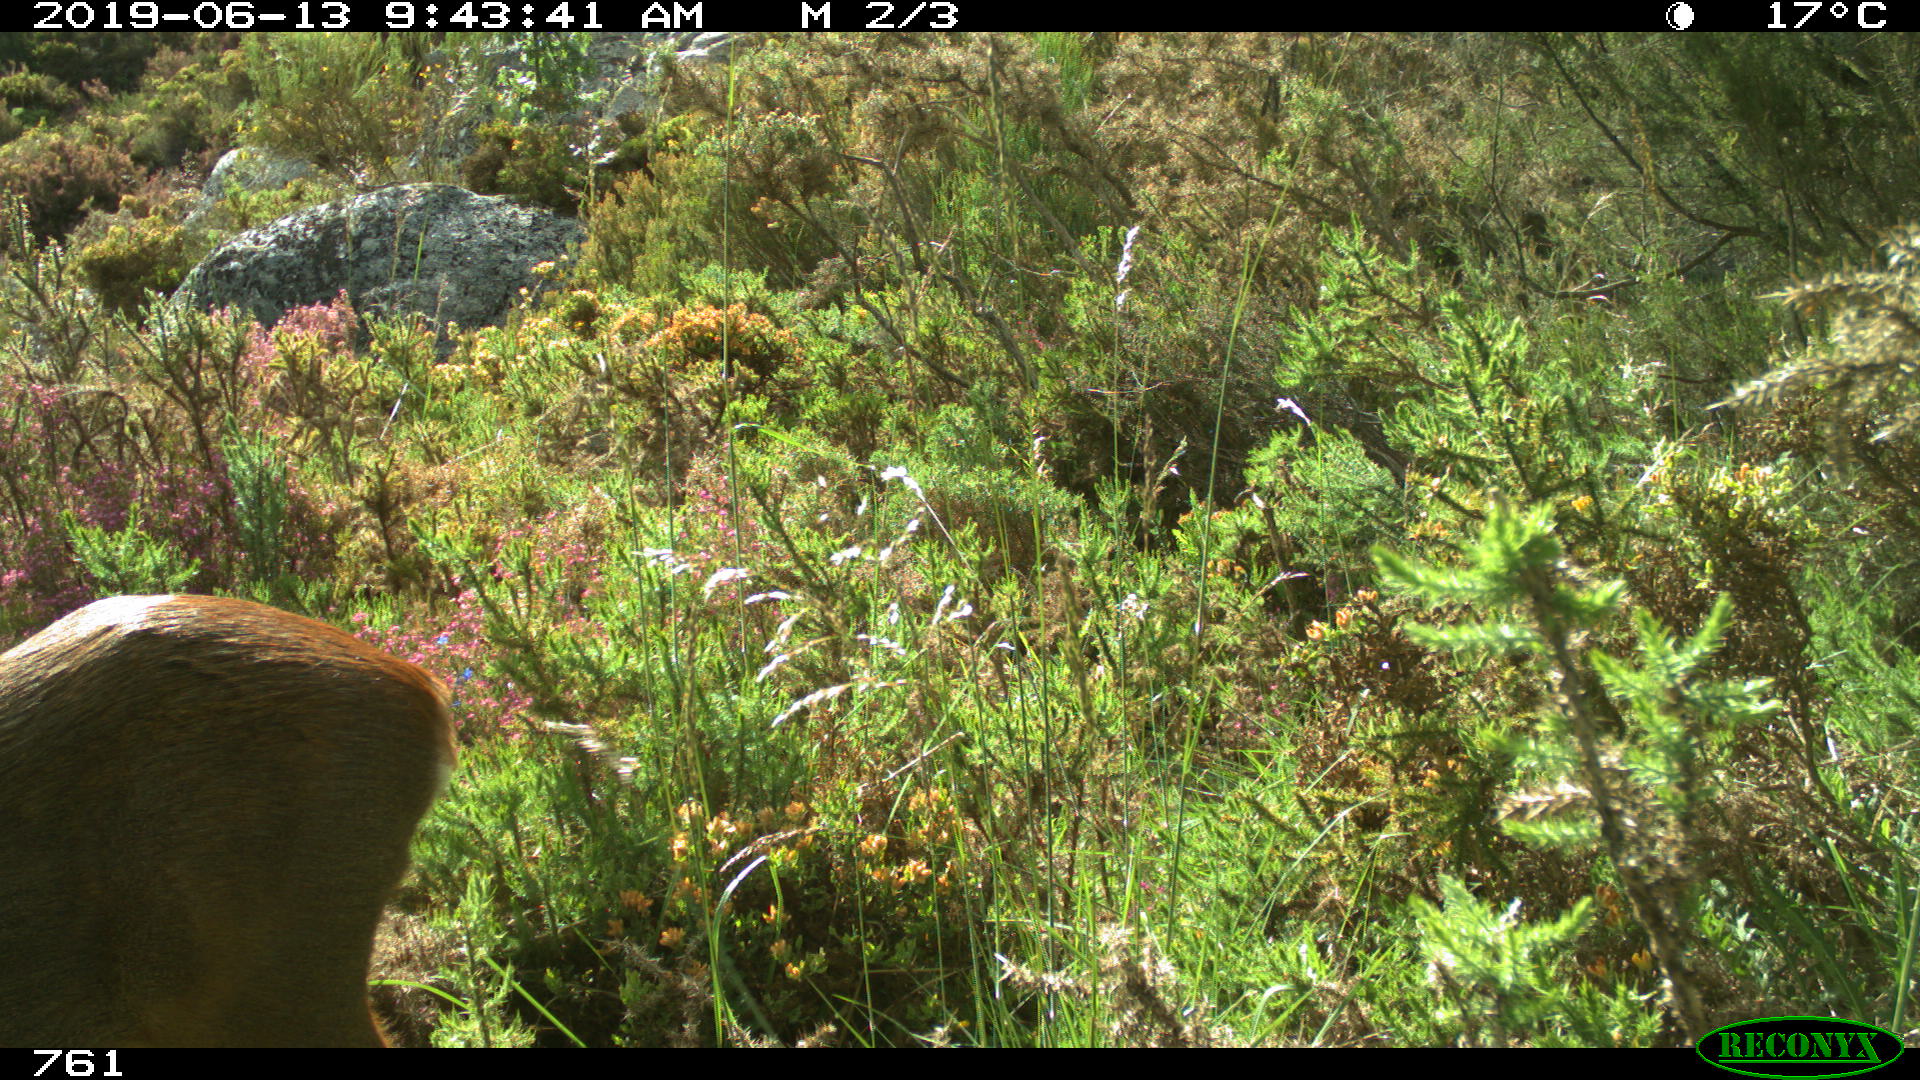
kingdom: Animalia
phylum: Chordata
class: Mammalia
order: Artiodactyla
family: Cervidae
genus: Capreolus
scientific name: Capreolus capreolus
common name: Western roe deer
